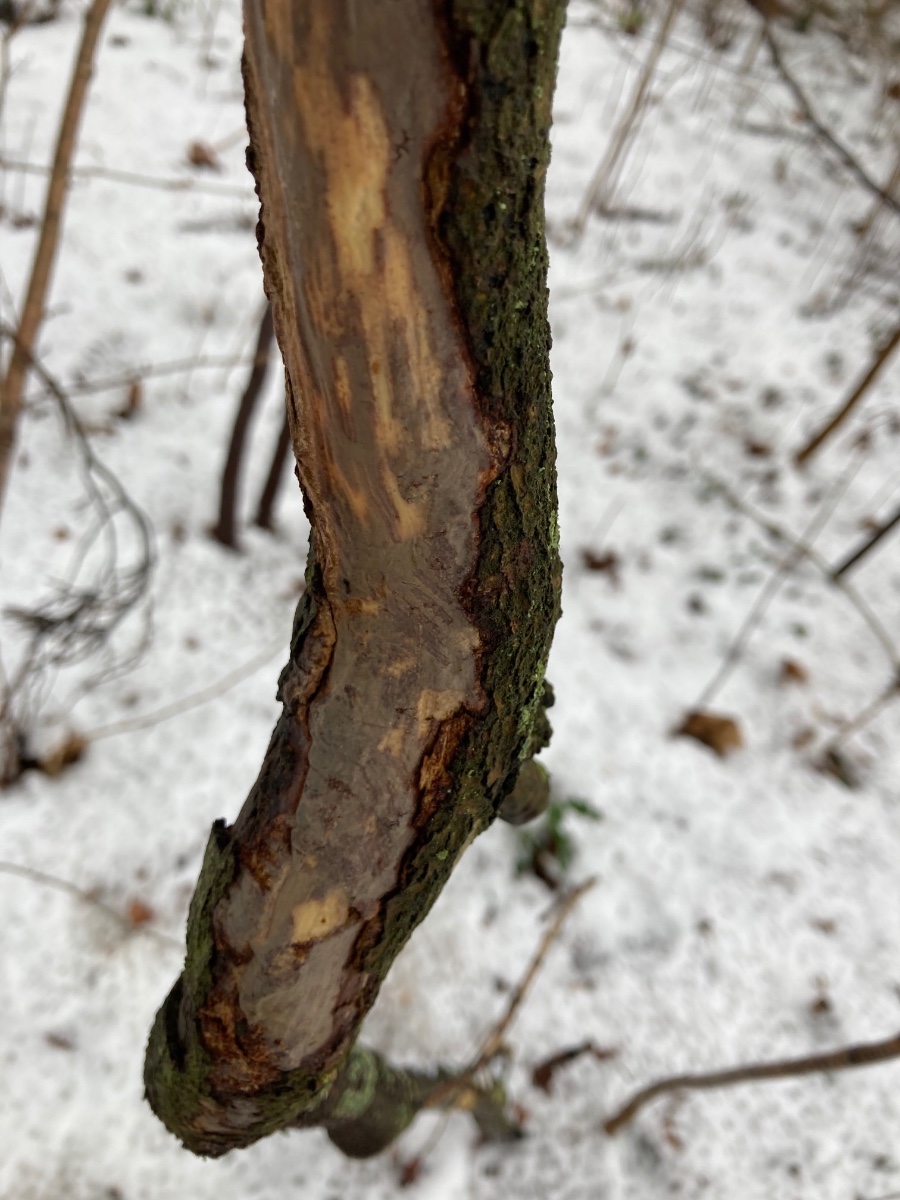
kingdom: Fungi
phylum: Basidiomycota
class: Agaricomycetes
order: Corticiales
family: Vuilleminiaceae
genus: Vuilleminia
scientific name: Vuilleminia comedens
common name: almindelig barksprænger
